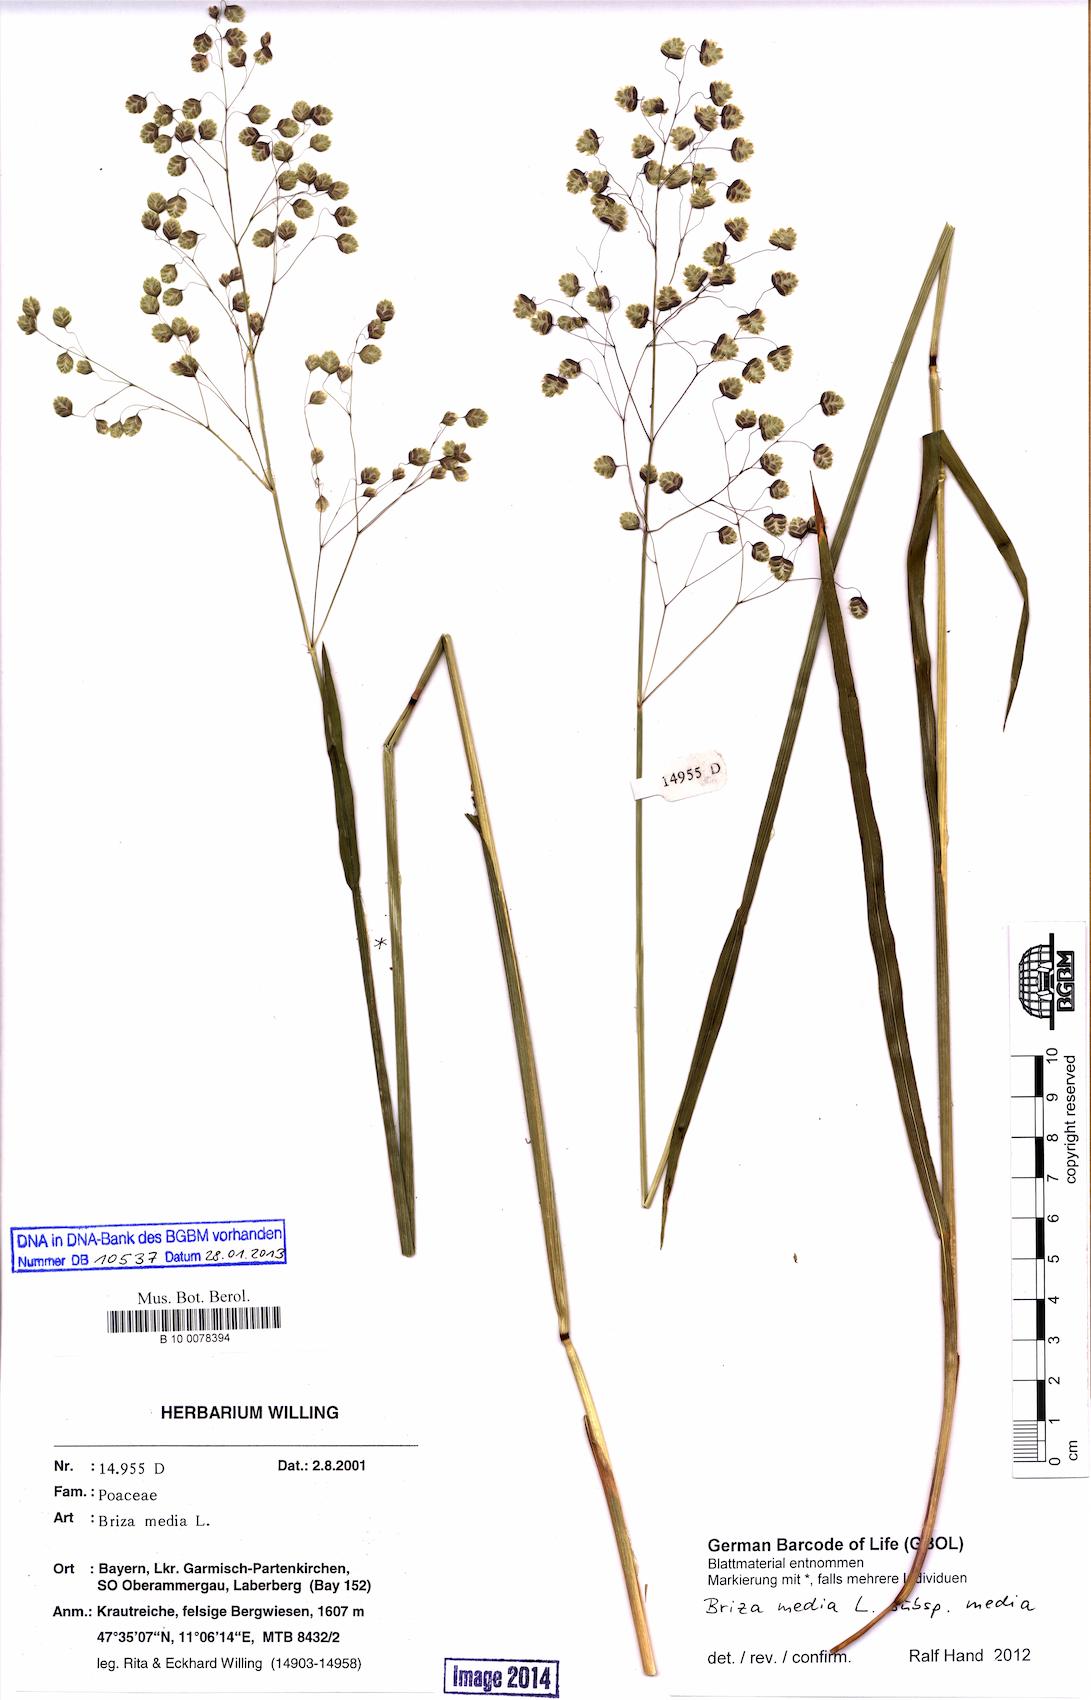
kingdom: Plantae
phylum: Tracheophyta
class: Liliopsida
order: Poales
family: Poaceae
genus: Briza
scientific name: Briza media
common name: Quaking grass
